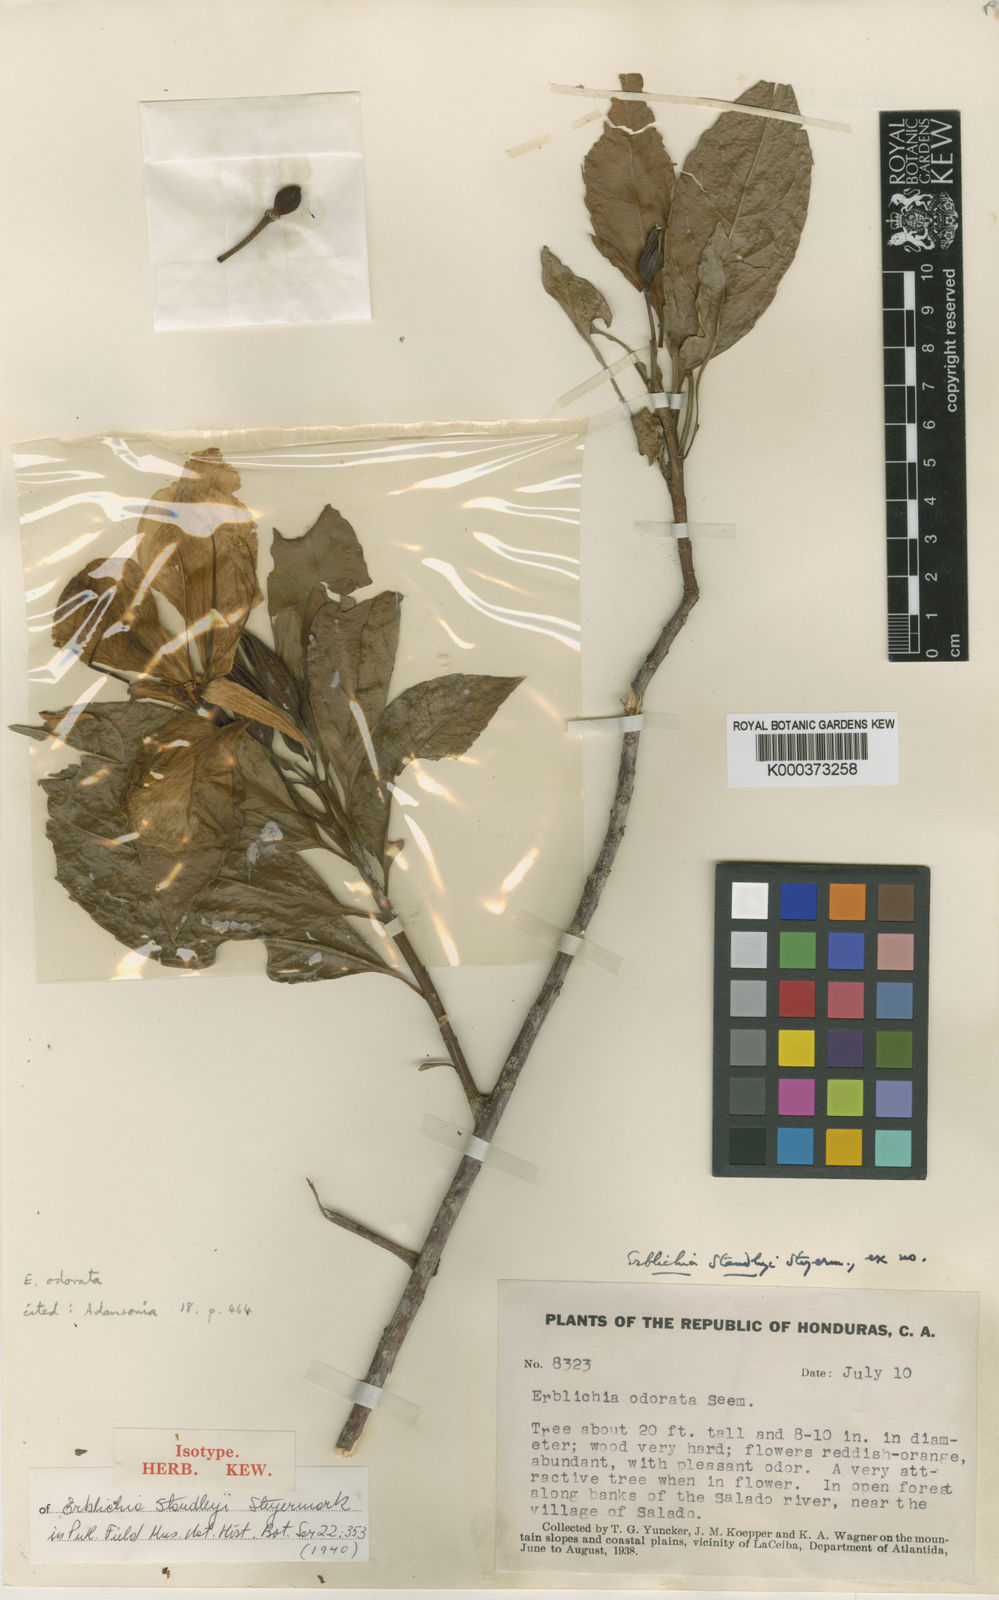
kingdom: Plantae
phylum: Tracheophyta
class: Magnoliopsida
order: Malpighiales
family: Turneraceae
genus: Erblichia
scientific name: Erblichia odorata
